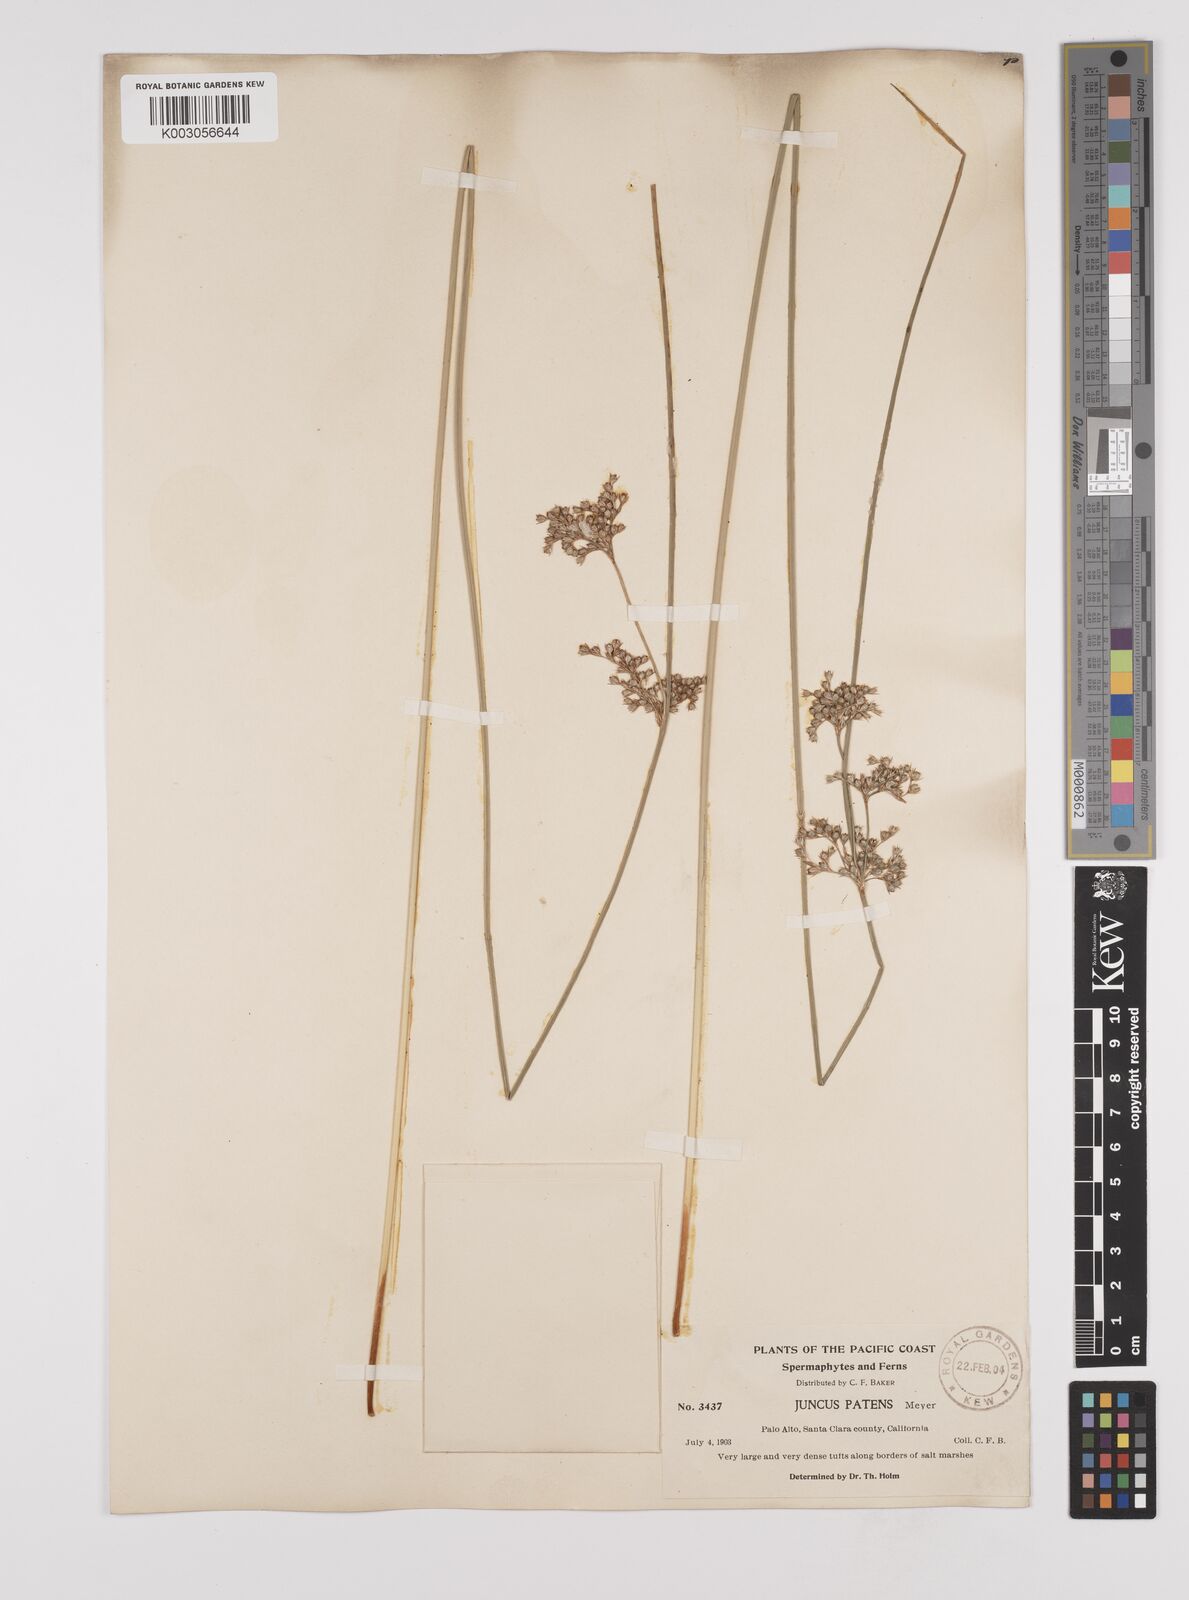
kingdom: Plantae
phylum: Tracheophyta
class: Liliopsida
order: Poales
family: Juncaceae
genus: Juncus
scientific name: Juncus patens
